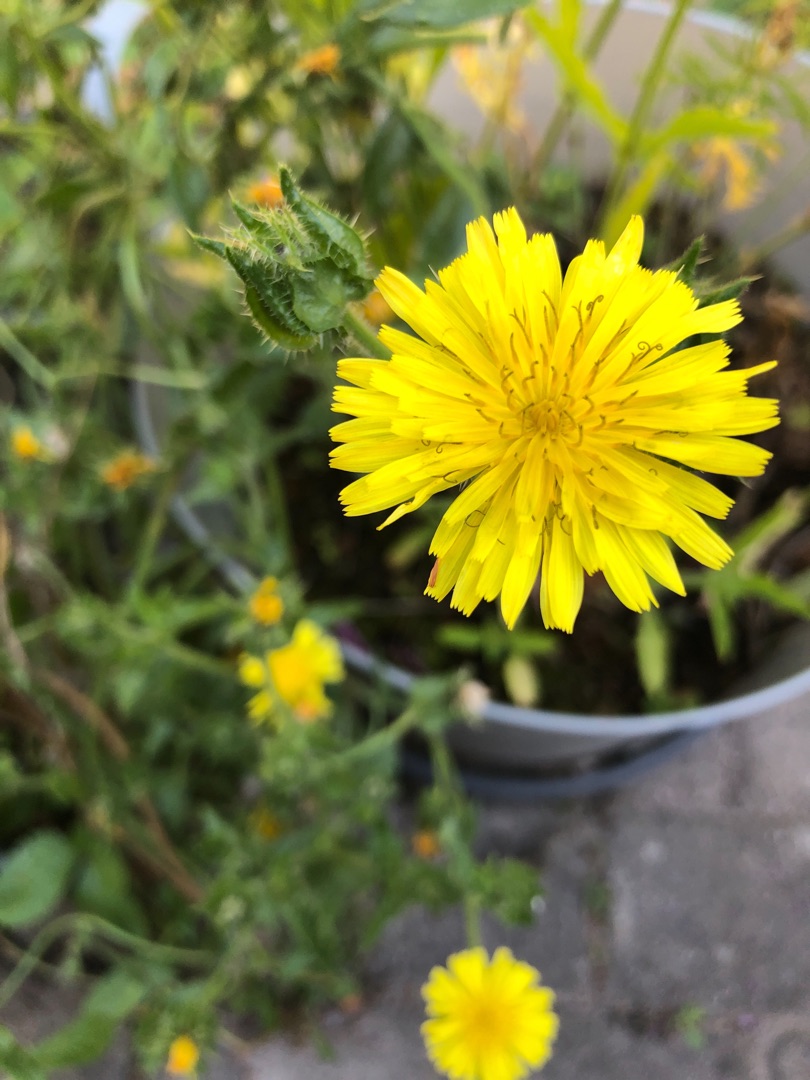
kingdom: Plantae
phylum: Tracheophyta
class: Magnoliopsida
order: Asterales
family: Asteraceae
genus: Helminthotheca
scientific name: Helminthotheca echioides
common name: Vingekurv
